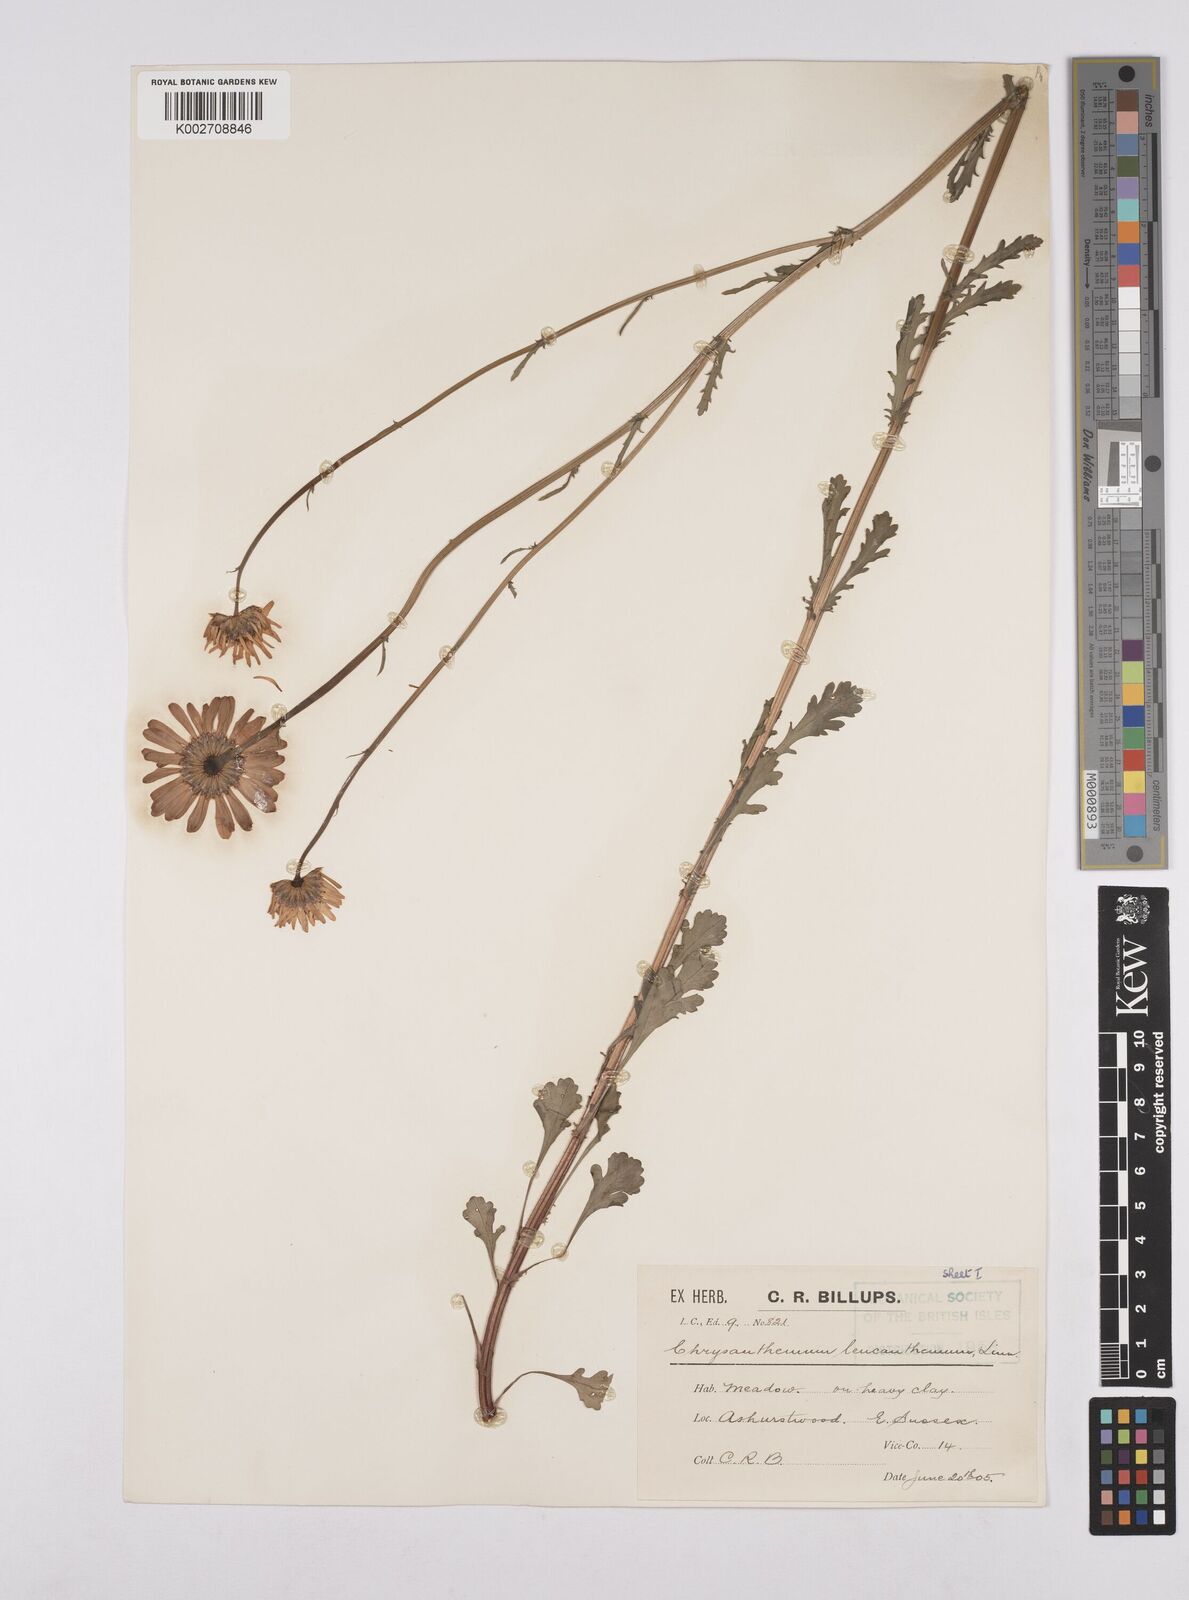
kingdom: Plantae
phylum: Tracheophyta
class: Magnoliopsida
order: Asterales
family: Asteraceae
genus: Leucanthemum
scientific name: Leucanthemum
